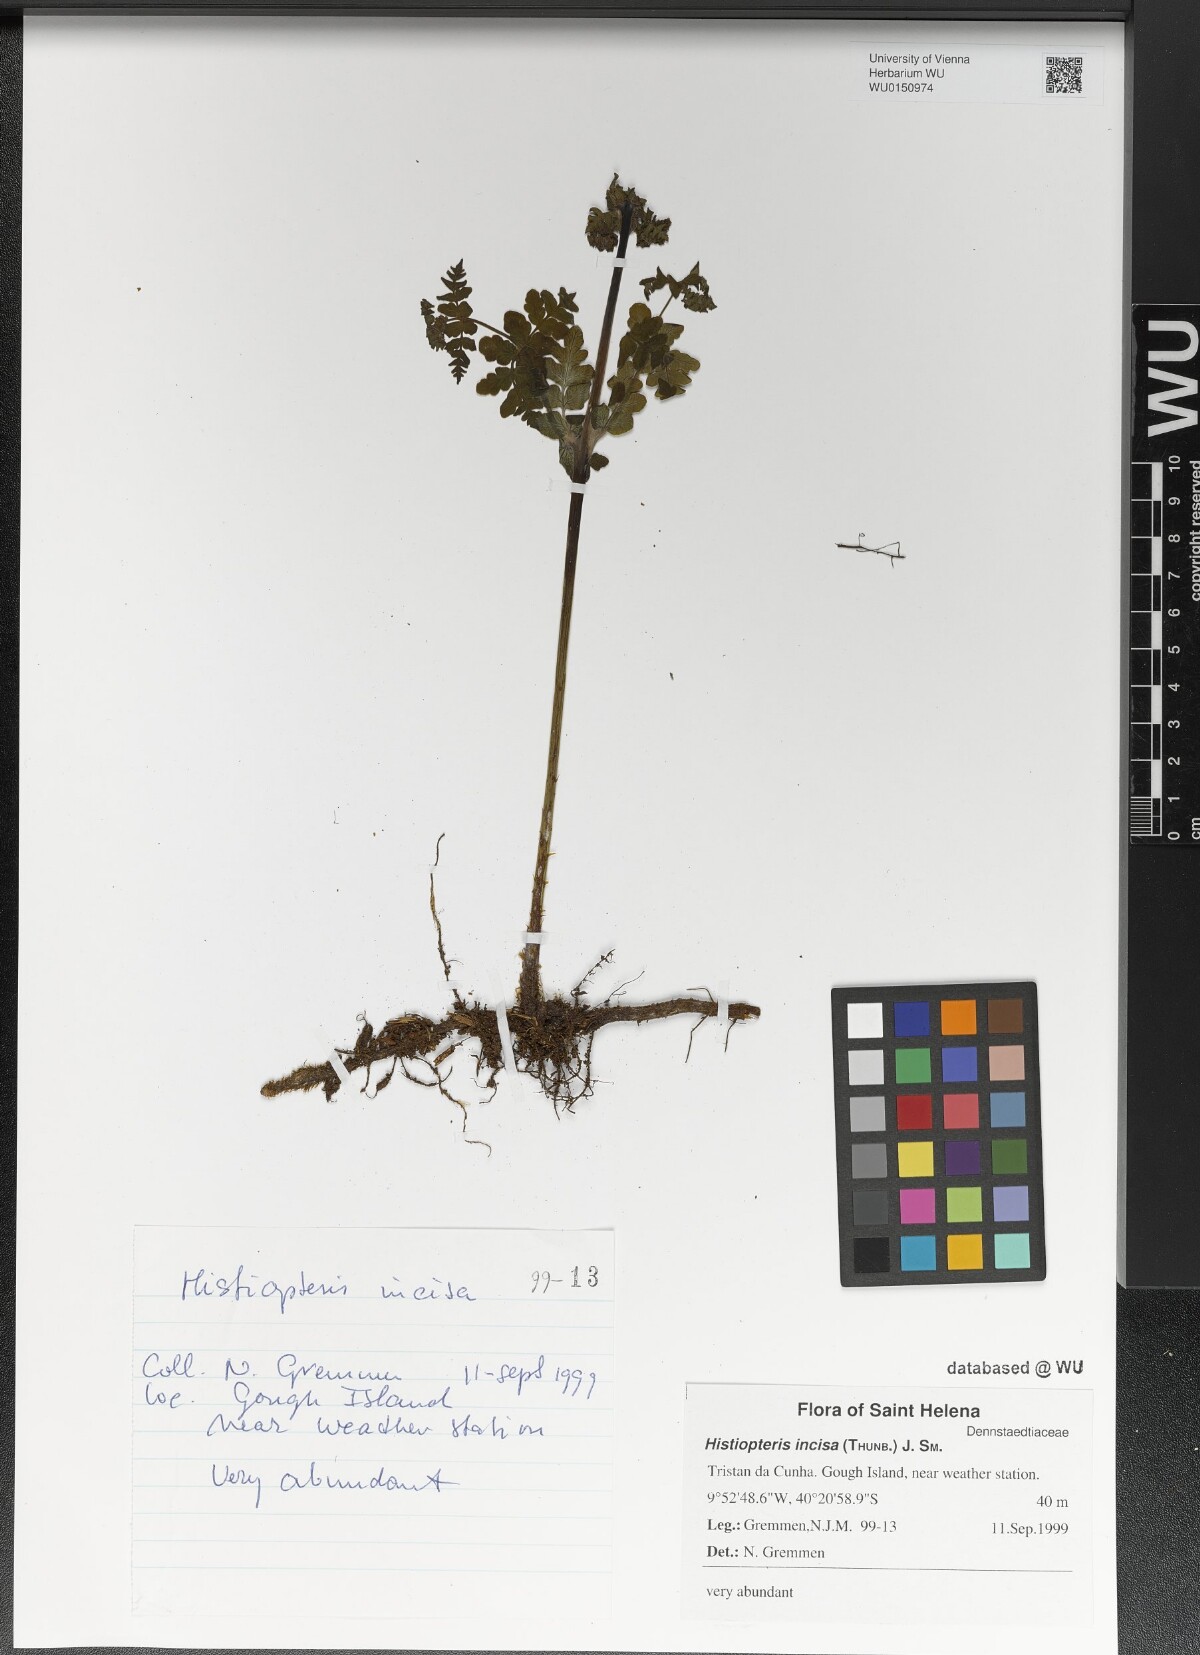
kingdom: Plantae
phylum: Tracheophyta
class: Polypodiopsida
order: Polypodiales
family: Dennstaedtiaceae
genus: Histiopteris
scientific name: Histiopteris incisa
